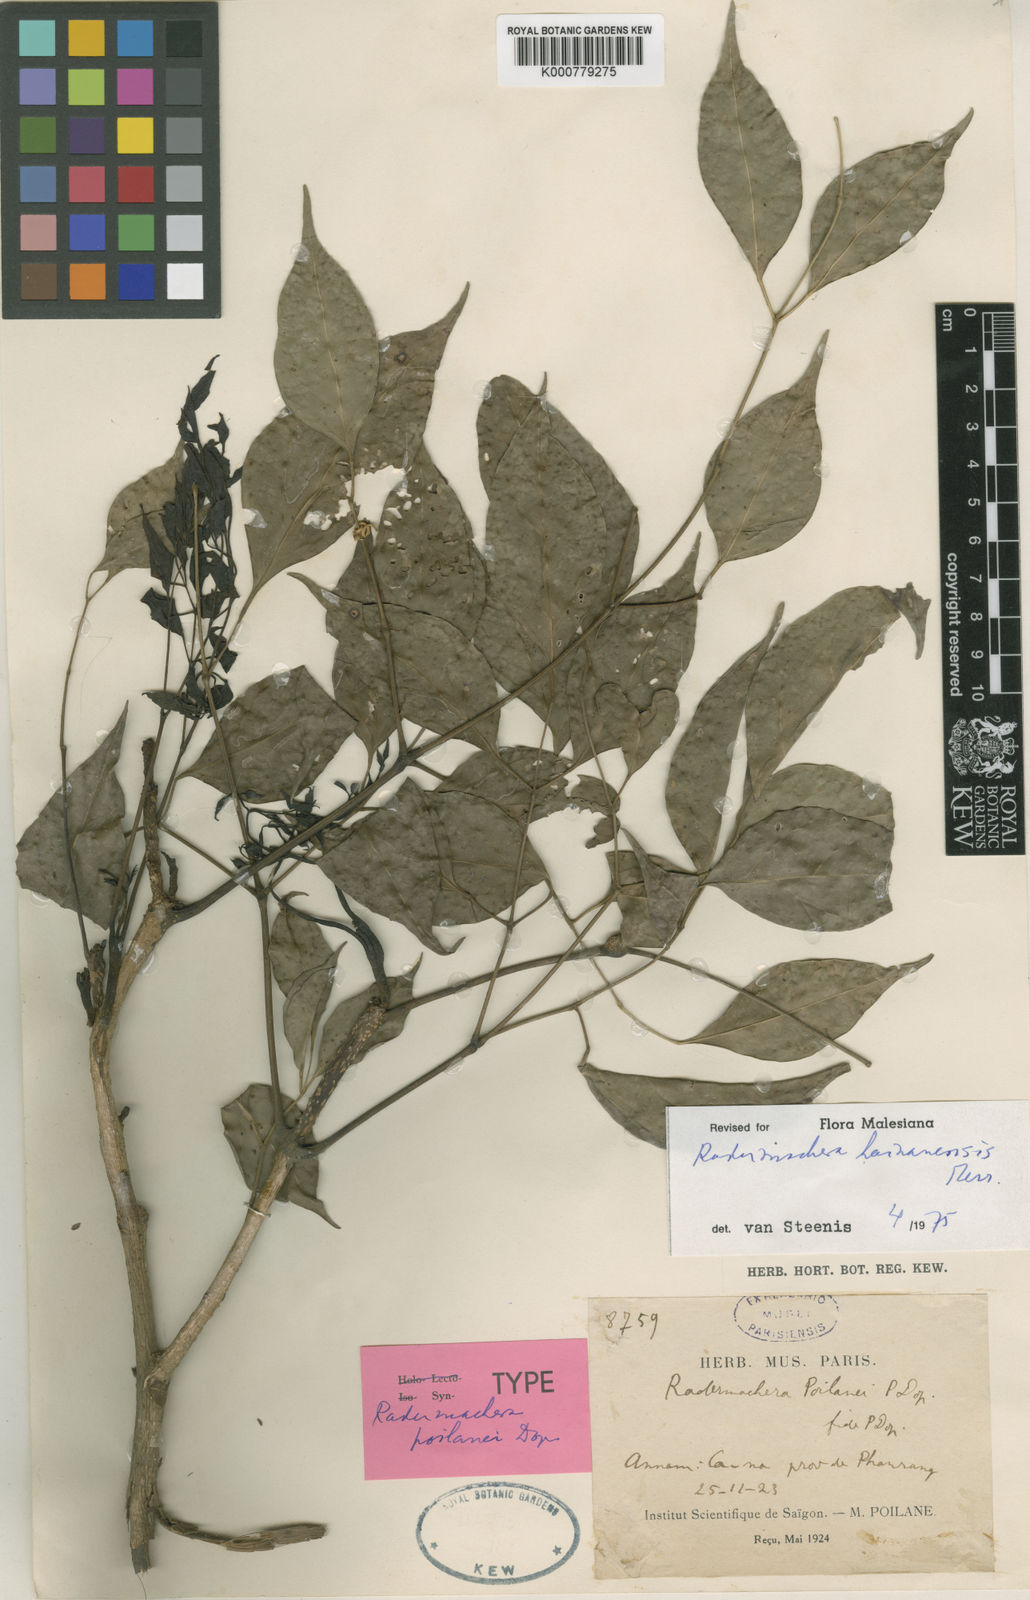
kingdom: Plantae
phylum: Tracheophyta
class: Magnoliopsida
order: Lamiales
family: Bignoniaceae
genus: Radermachera
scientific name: Radermachera hainanensis
